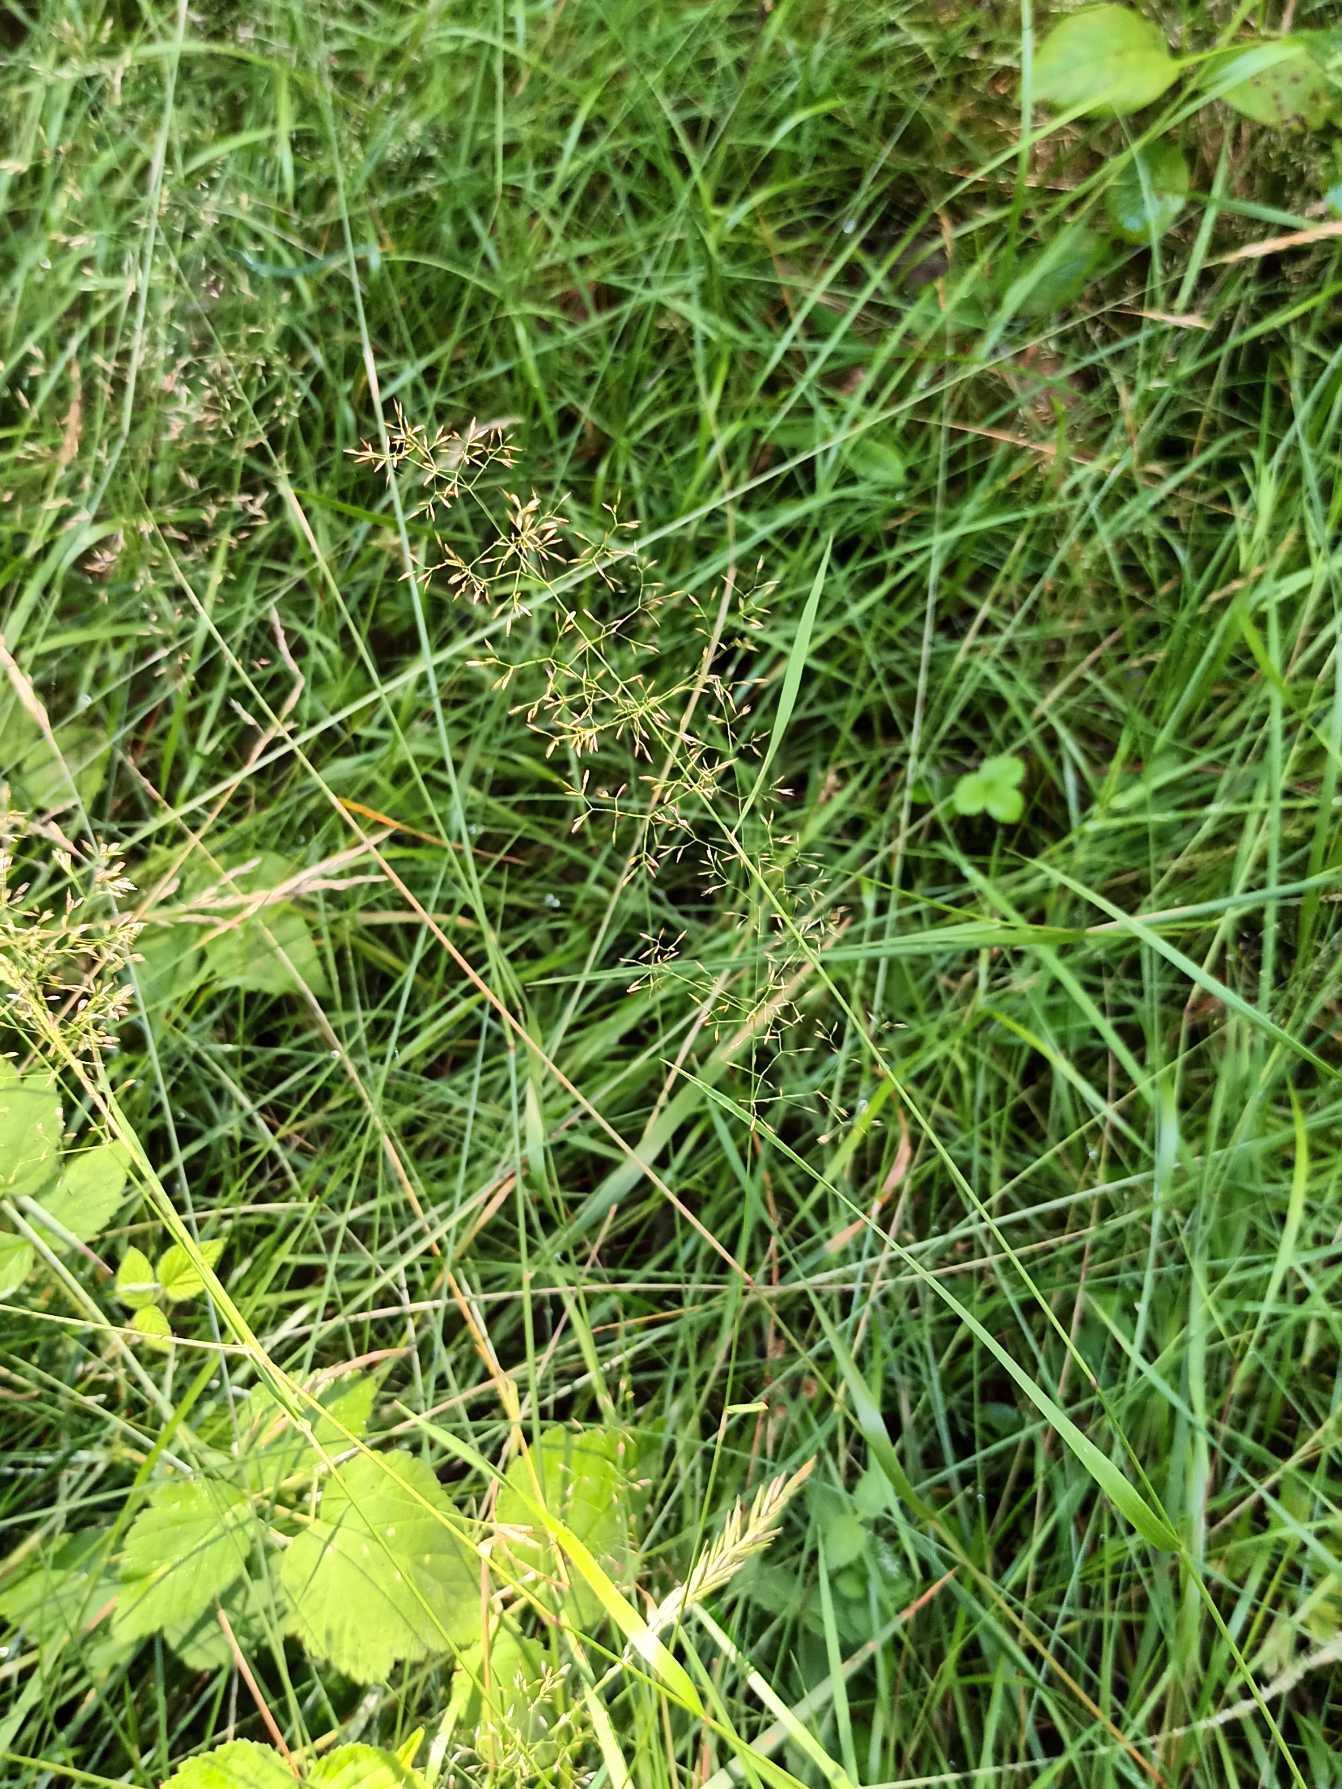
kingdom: Plantae
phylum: Tracheophyta
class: Liliopsida
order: Poales
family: Poaceae
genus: Agrostis
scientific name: Agrostis capillaris
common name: Almindelig hvene
